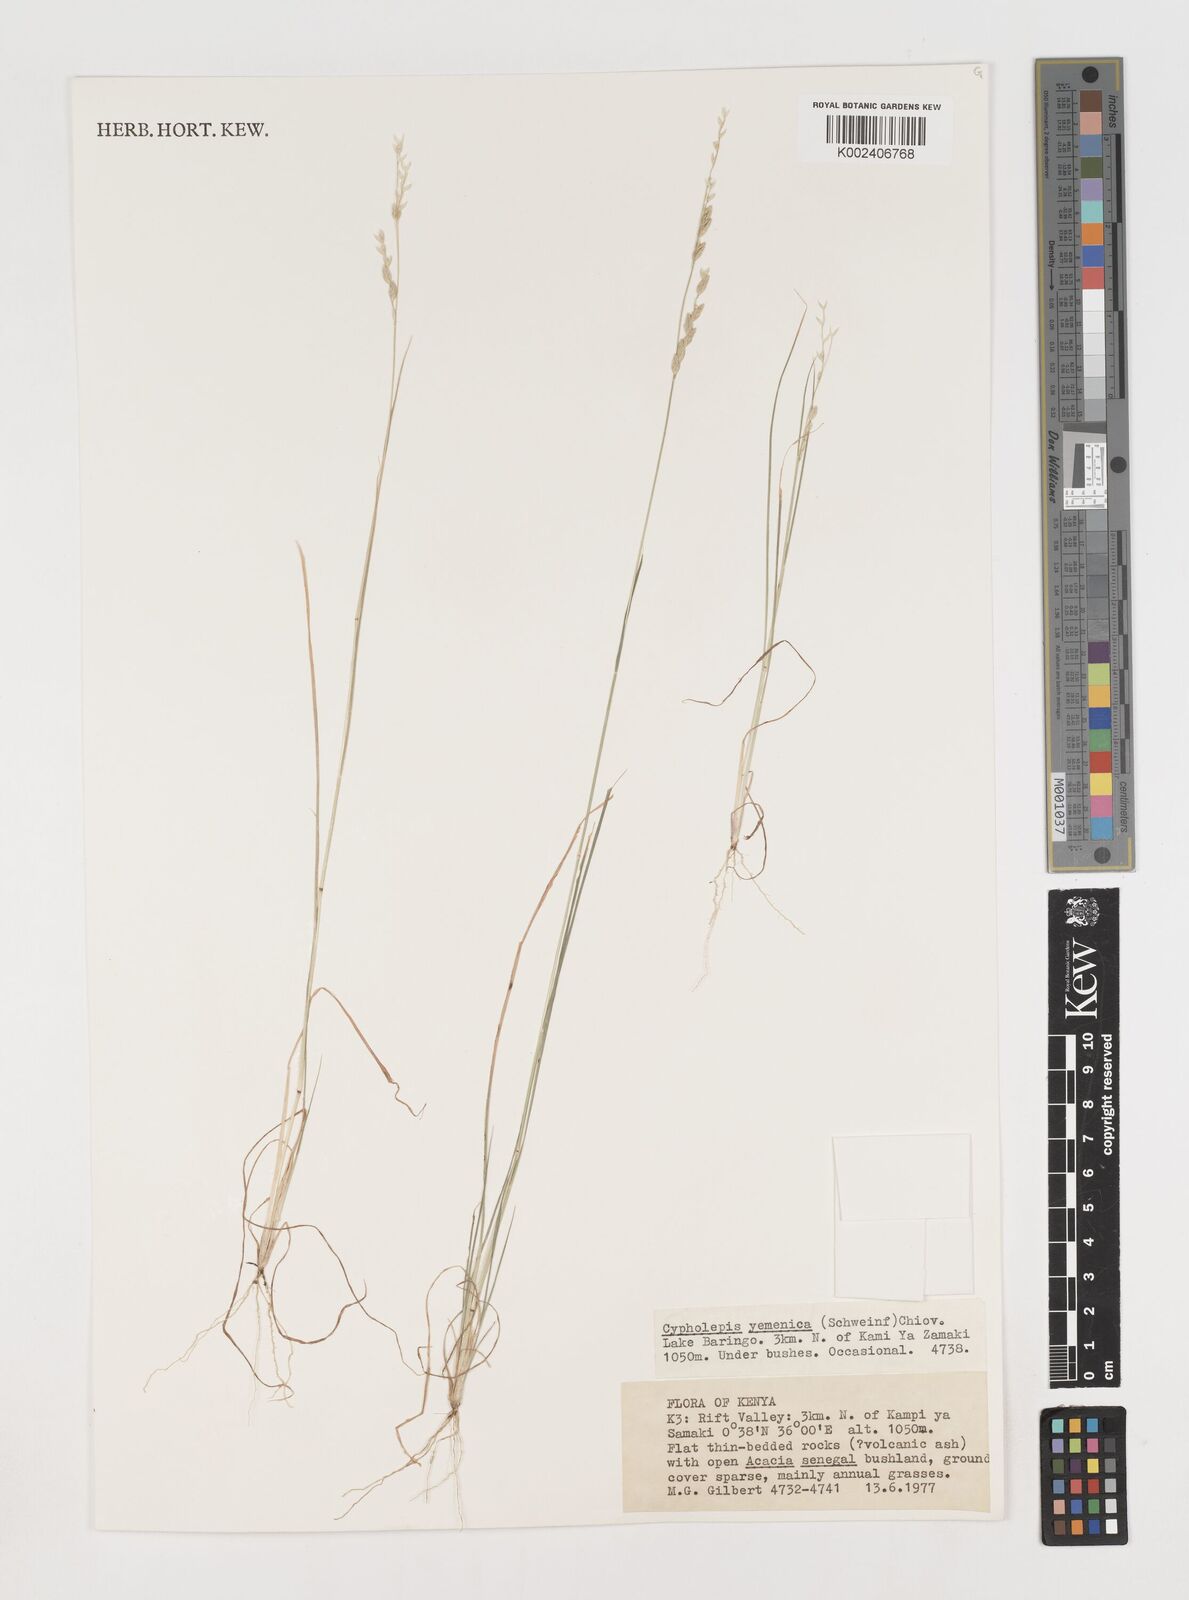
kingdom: Plantae
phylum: Tracheophyta
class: Liliopsida
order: Poales
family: Poaceae
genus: Disakisperma
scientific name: Disakisperma yemenicum
